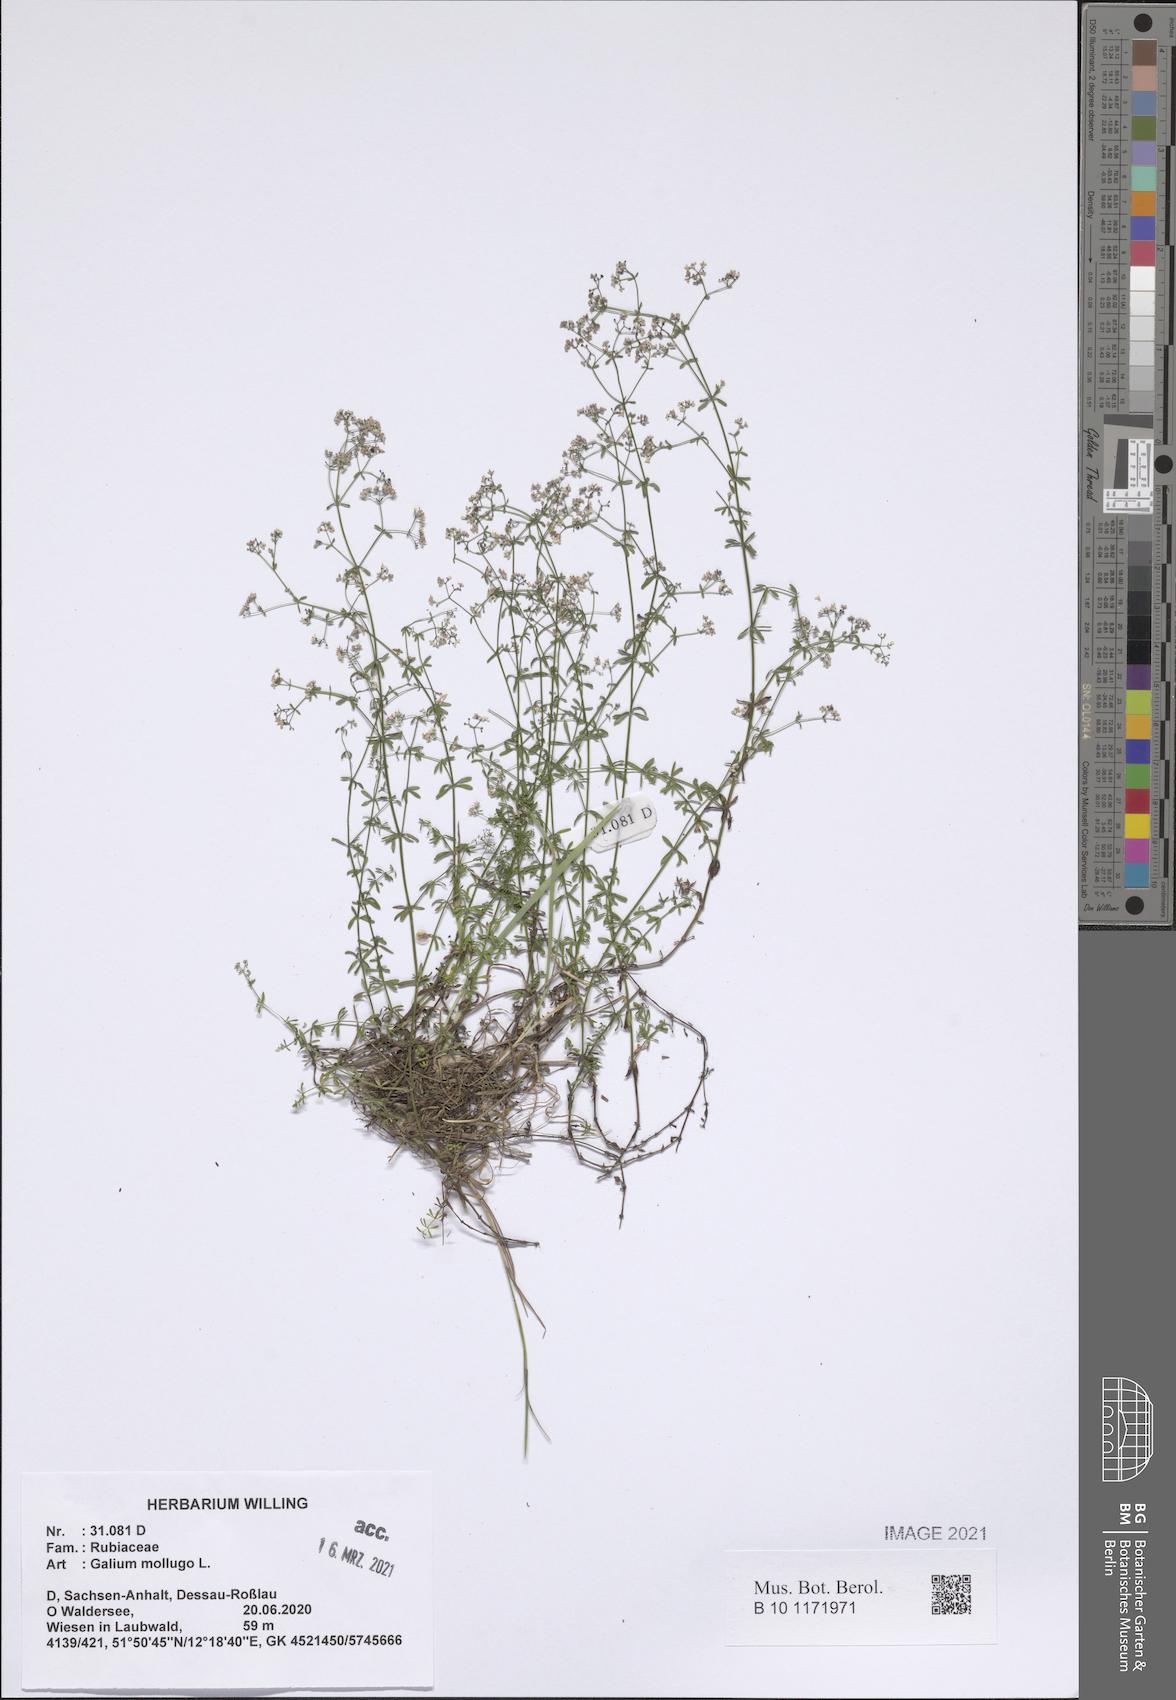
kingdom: Plantae
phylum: Tracheophyta
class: Magnoliopsida
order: Gentianales
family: Rubiaceae
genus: Galium
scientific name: Galium mollugo
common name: Hedge bedstraw
